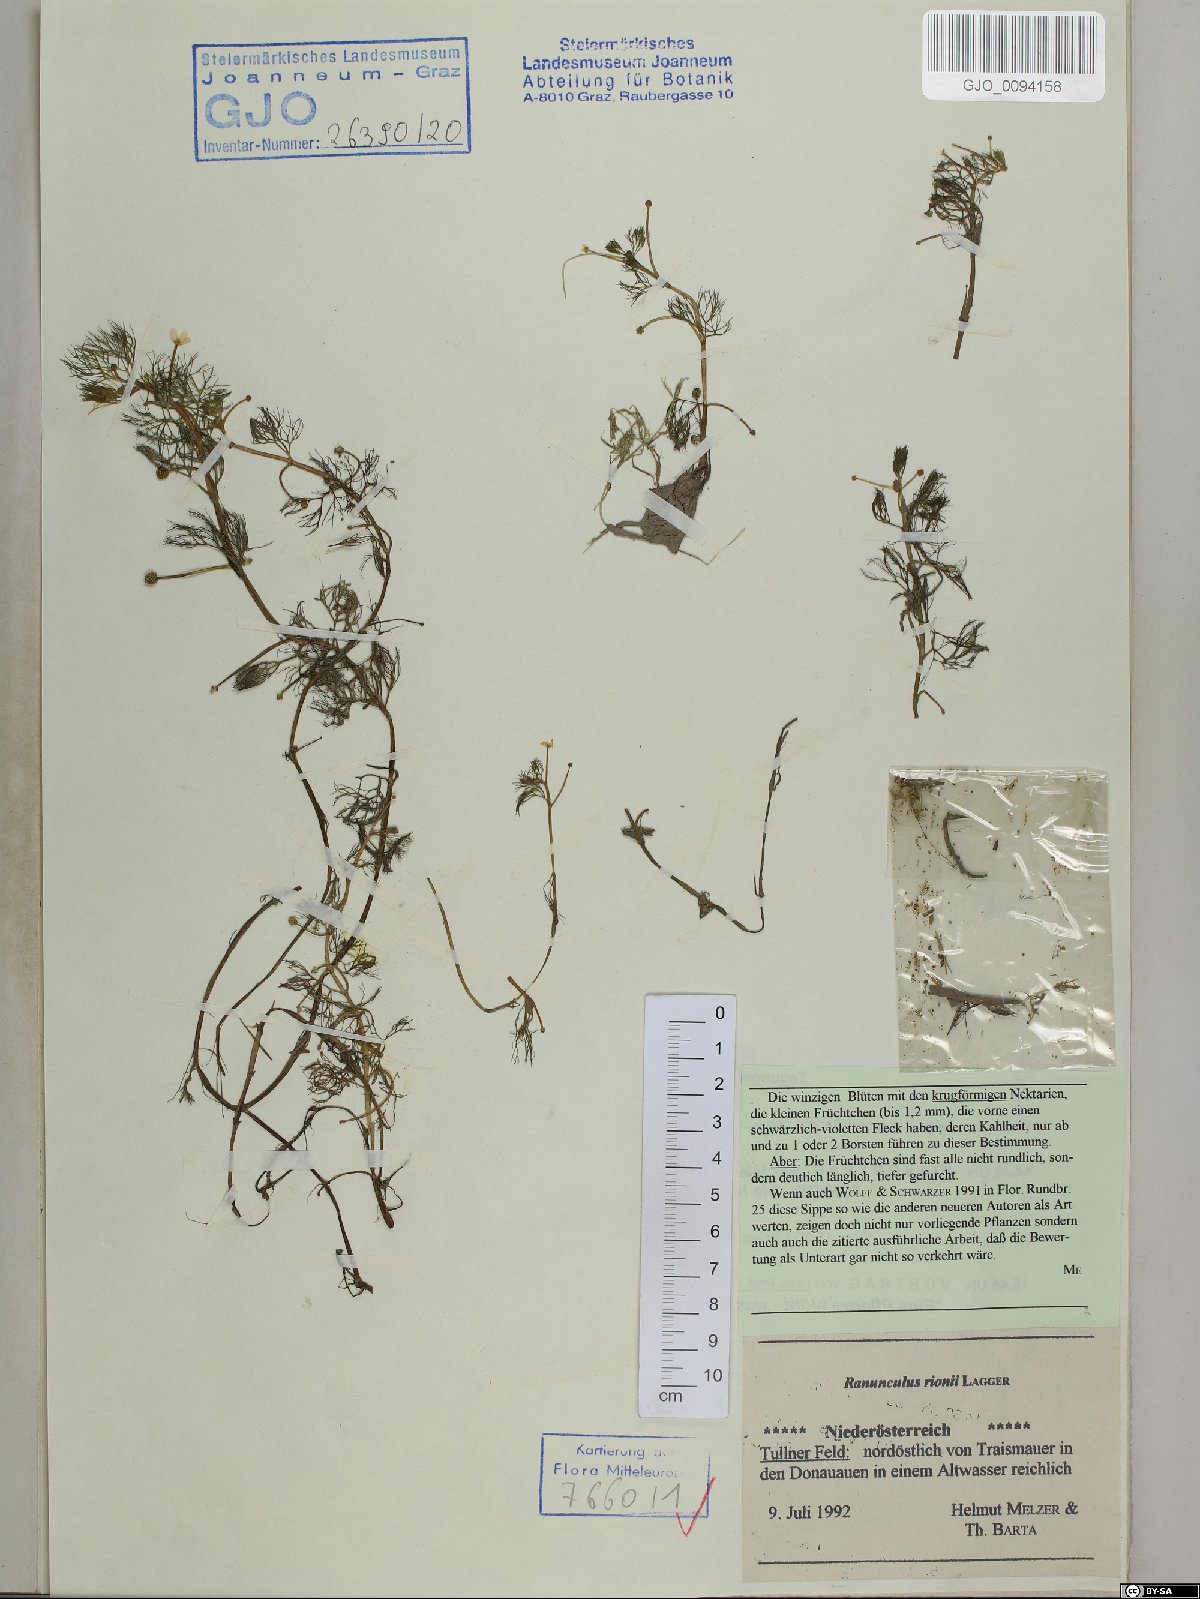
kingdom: Plantae
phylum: Tracheophyta
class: Magnoliopsida
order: Ranunculales
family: Ranunculaceae
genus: Ranunculus
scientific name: Ranunculus rionii
